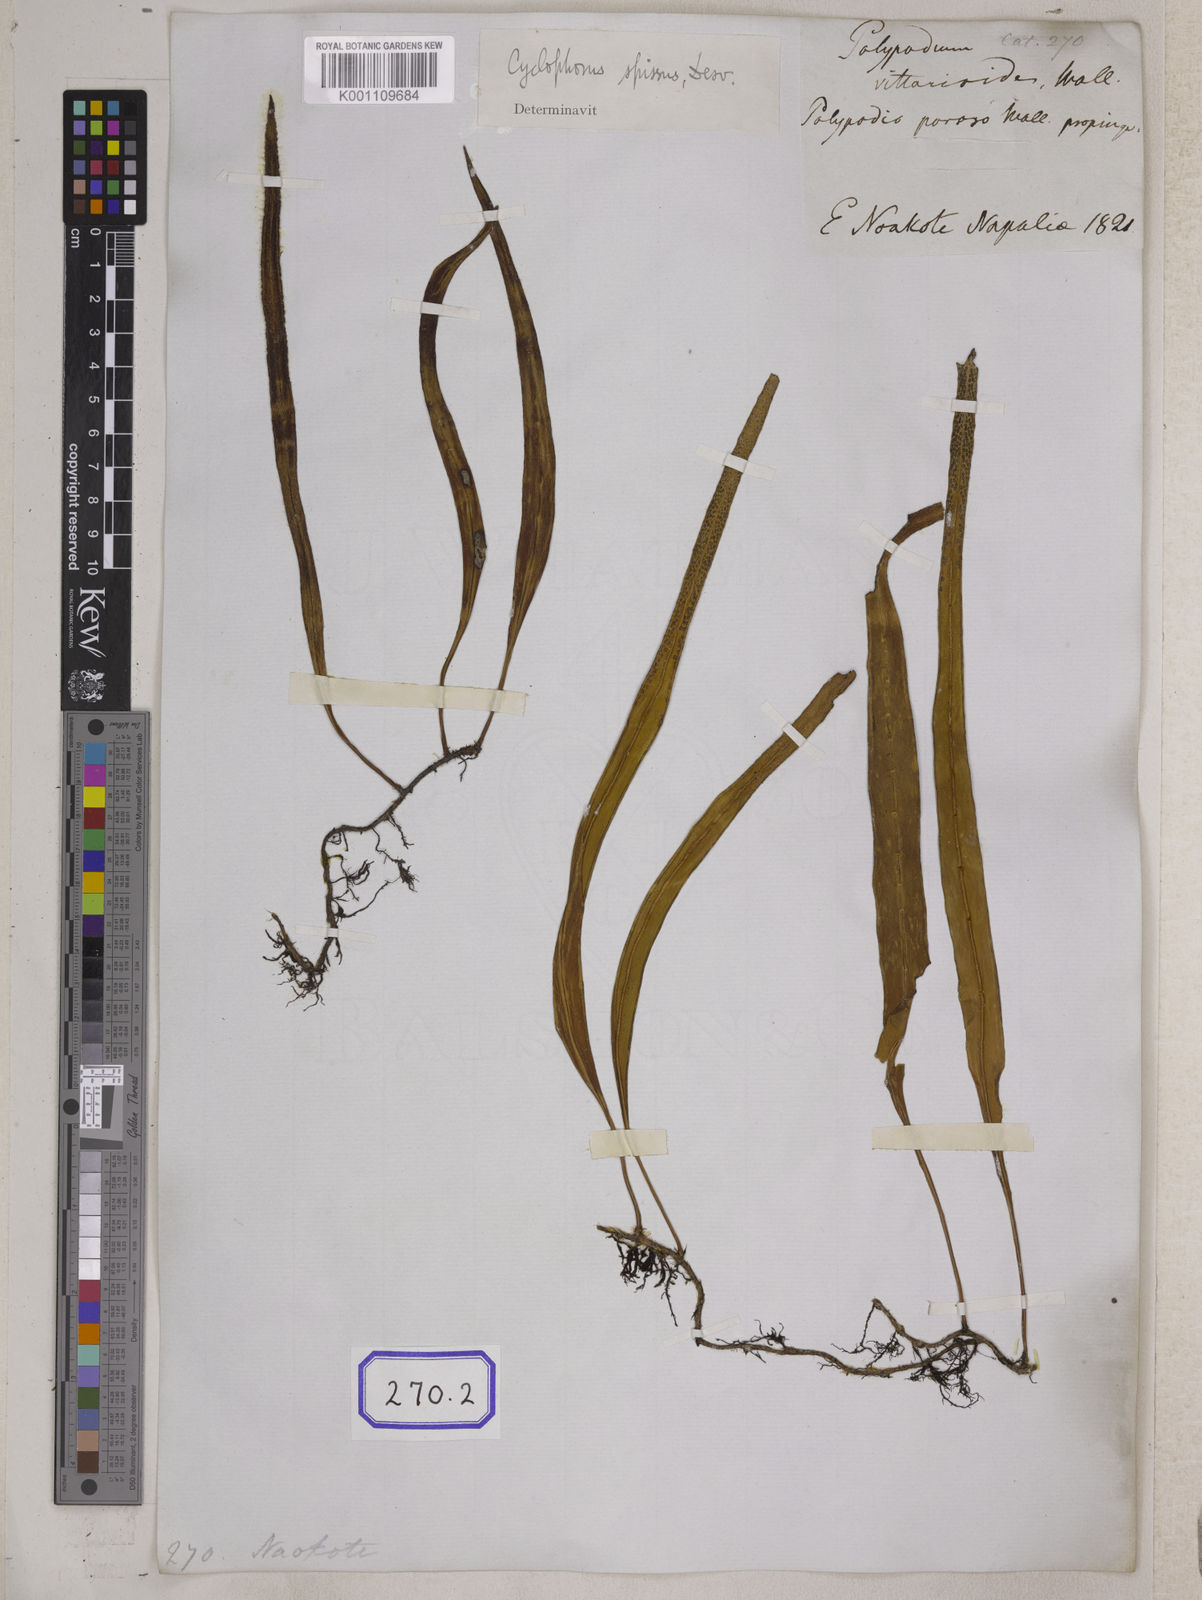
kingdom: Plantae
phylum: Tracheophyta
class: Polypodiopsida
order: Polypodiales
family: Polypodiaceae
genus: Polypodium
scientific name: Polypodium
